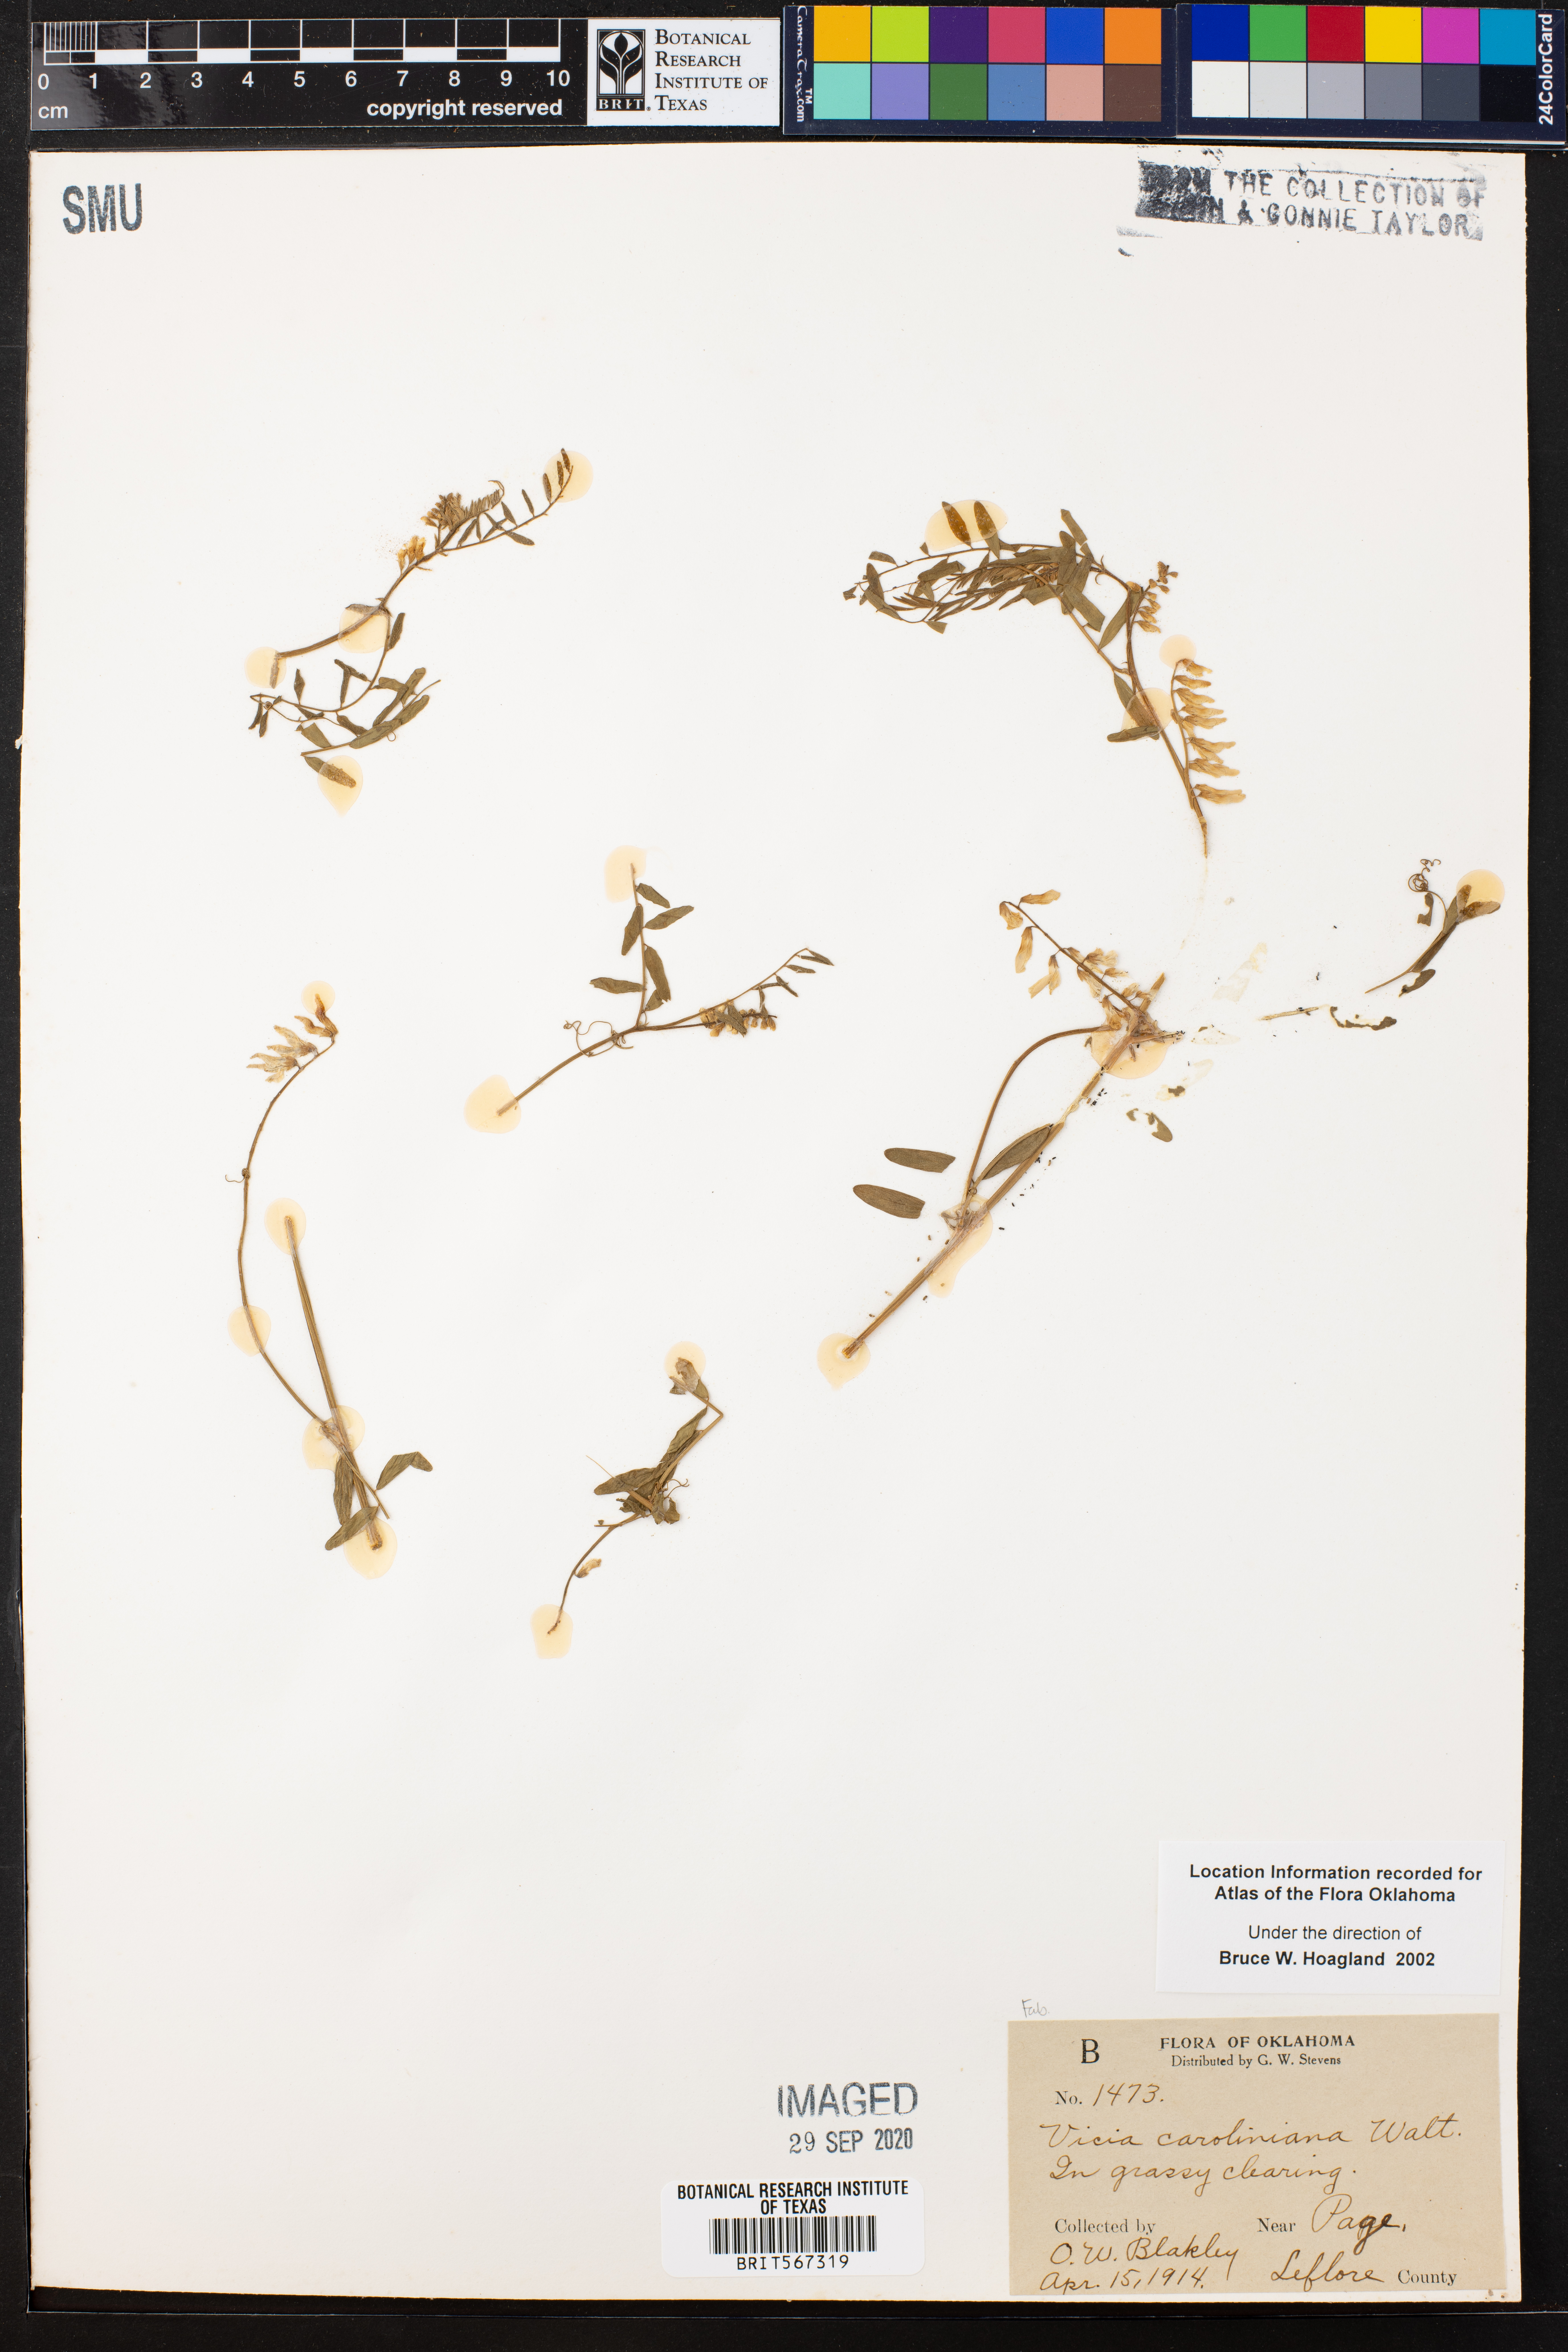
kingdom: Plantae
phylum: Tracheophyta
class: Magnoliopsida
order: Fabales
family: Fabaceae
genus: Vicia
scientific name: Vicia caroliniana
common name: Carolina vetch
